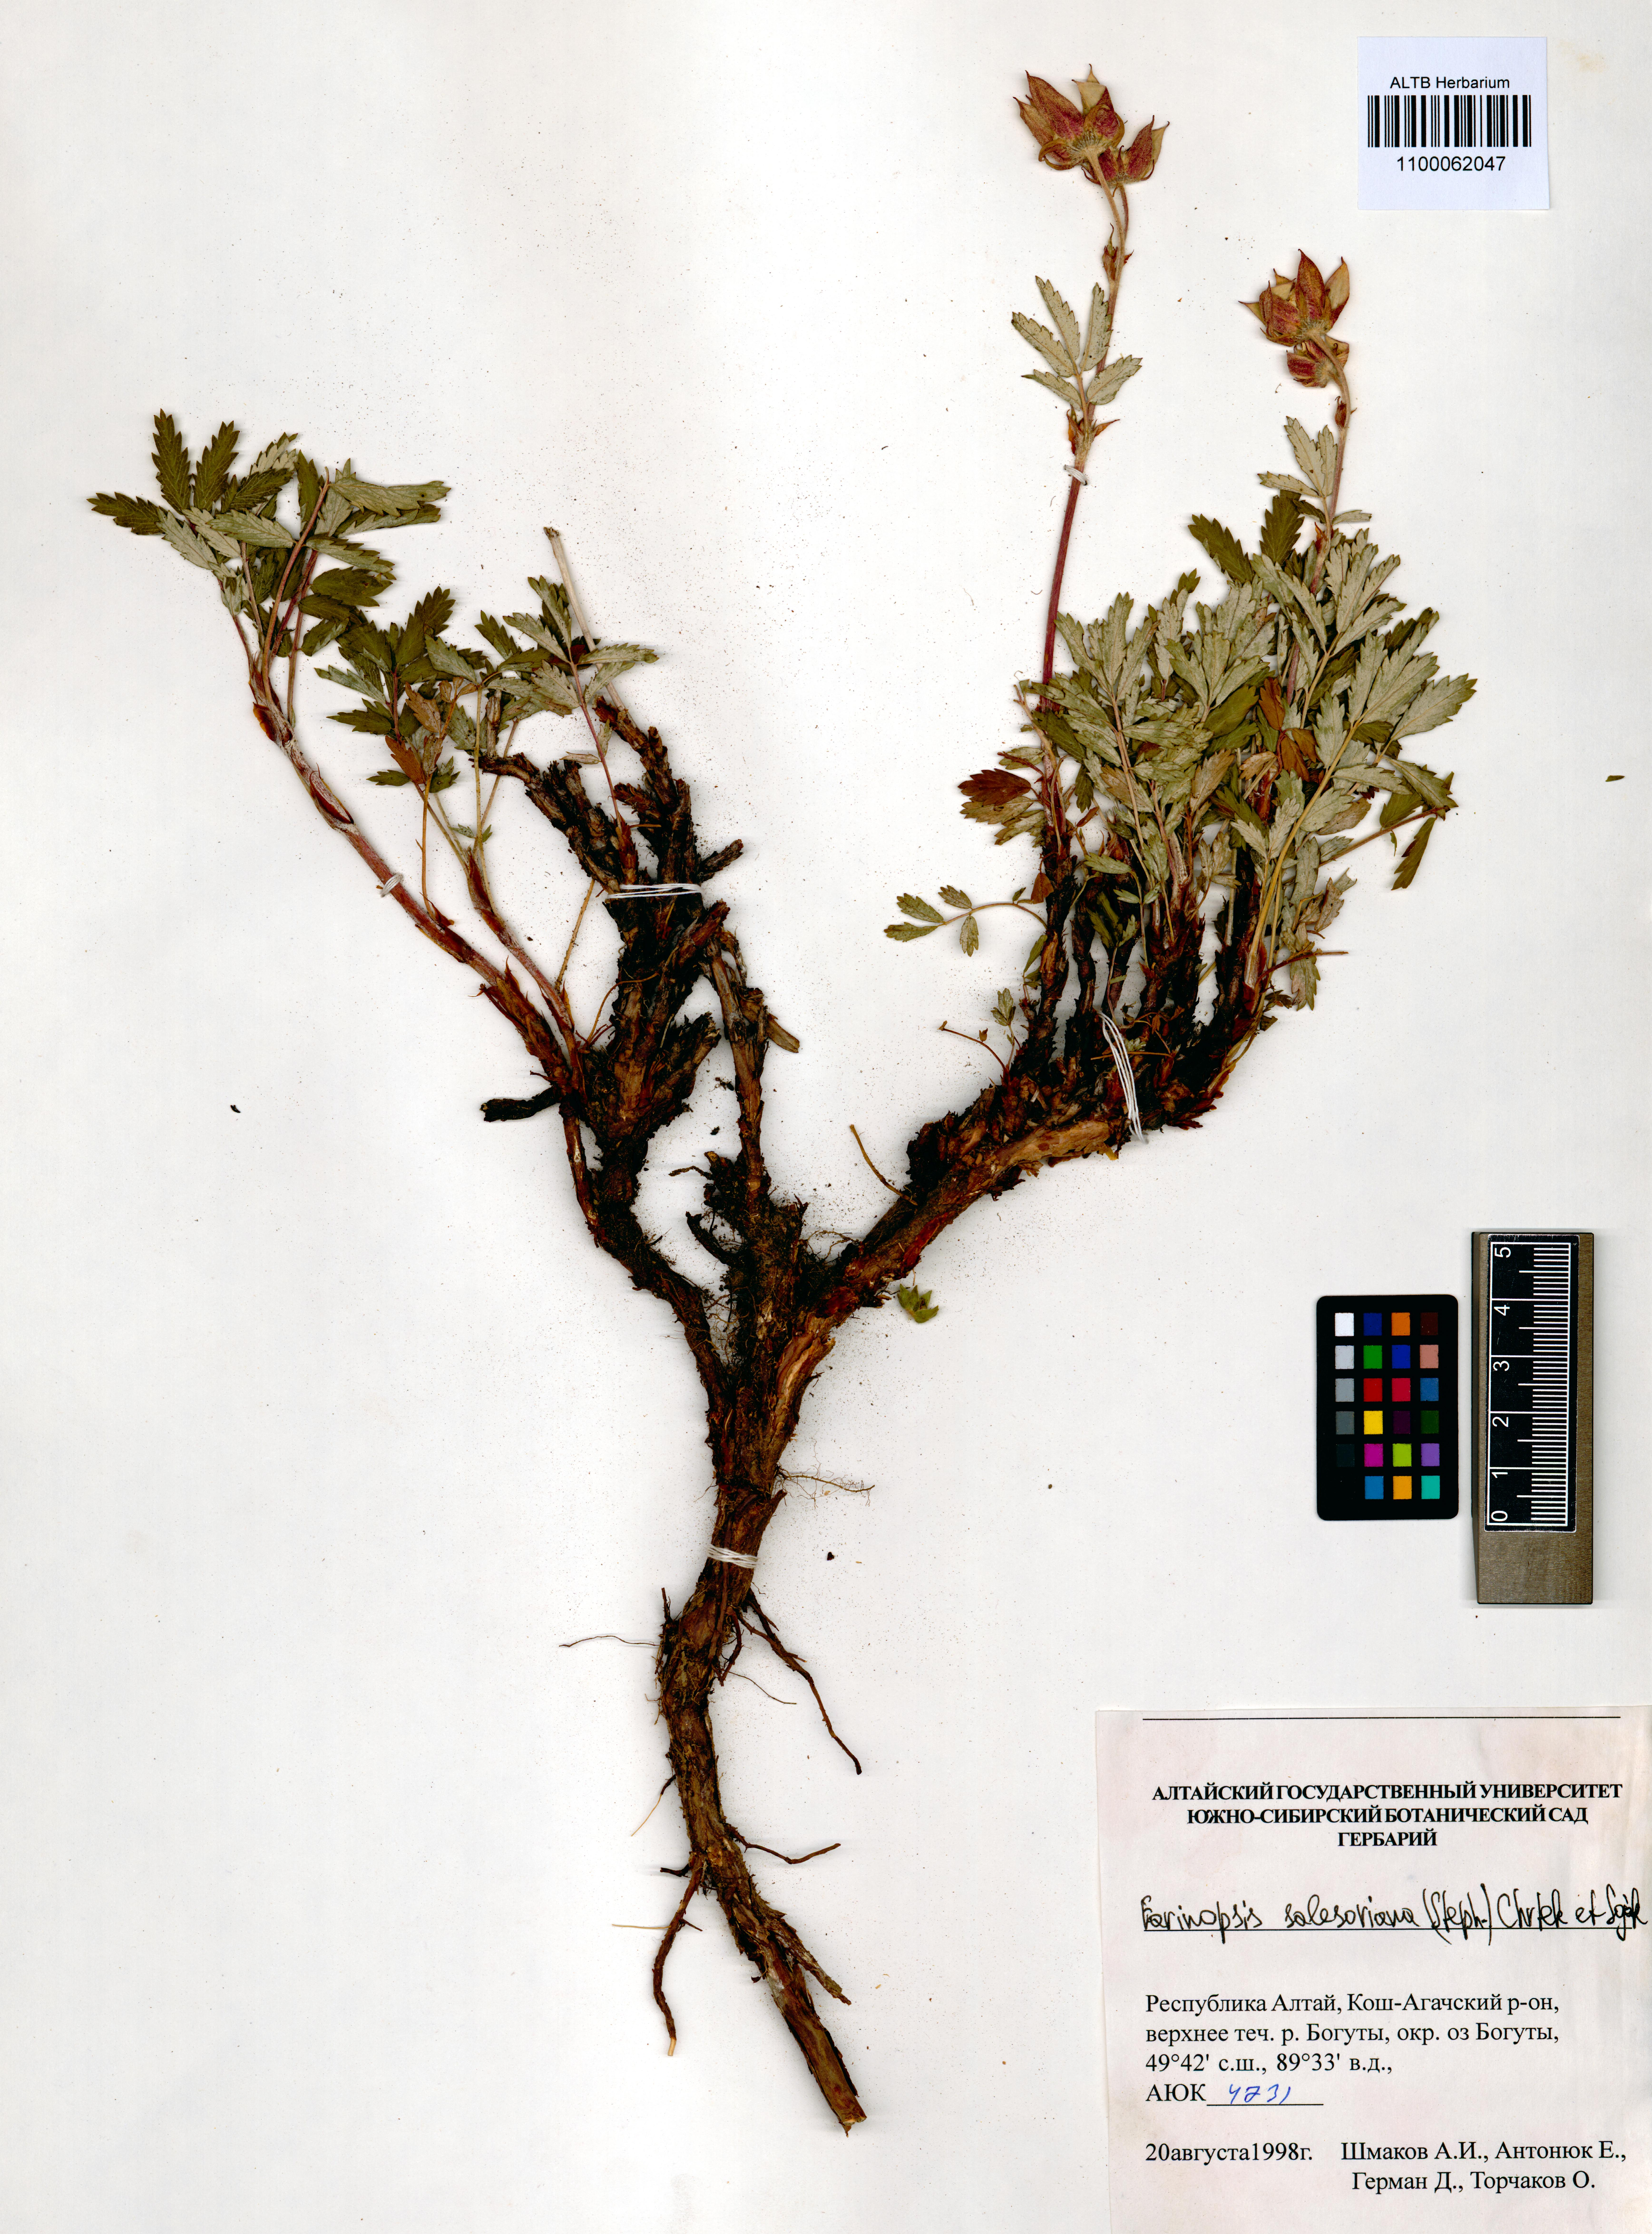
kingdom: Plantae
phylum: Tracheophyta
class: Magnoliopsida
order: Rosales
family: Rosaceae
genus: Farinopsis
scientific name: Farinopsis salesoviana
